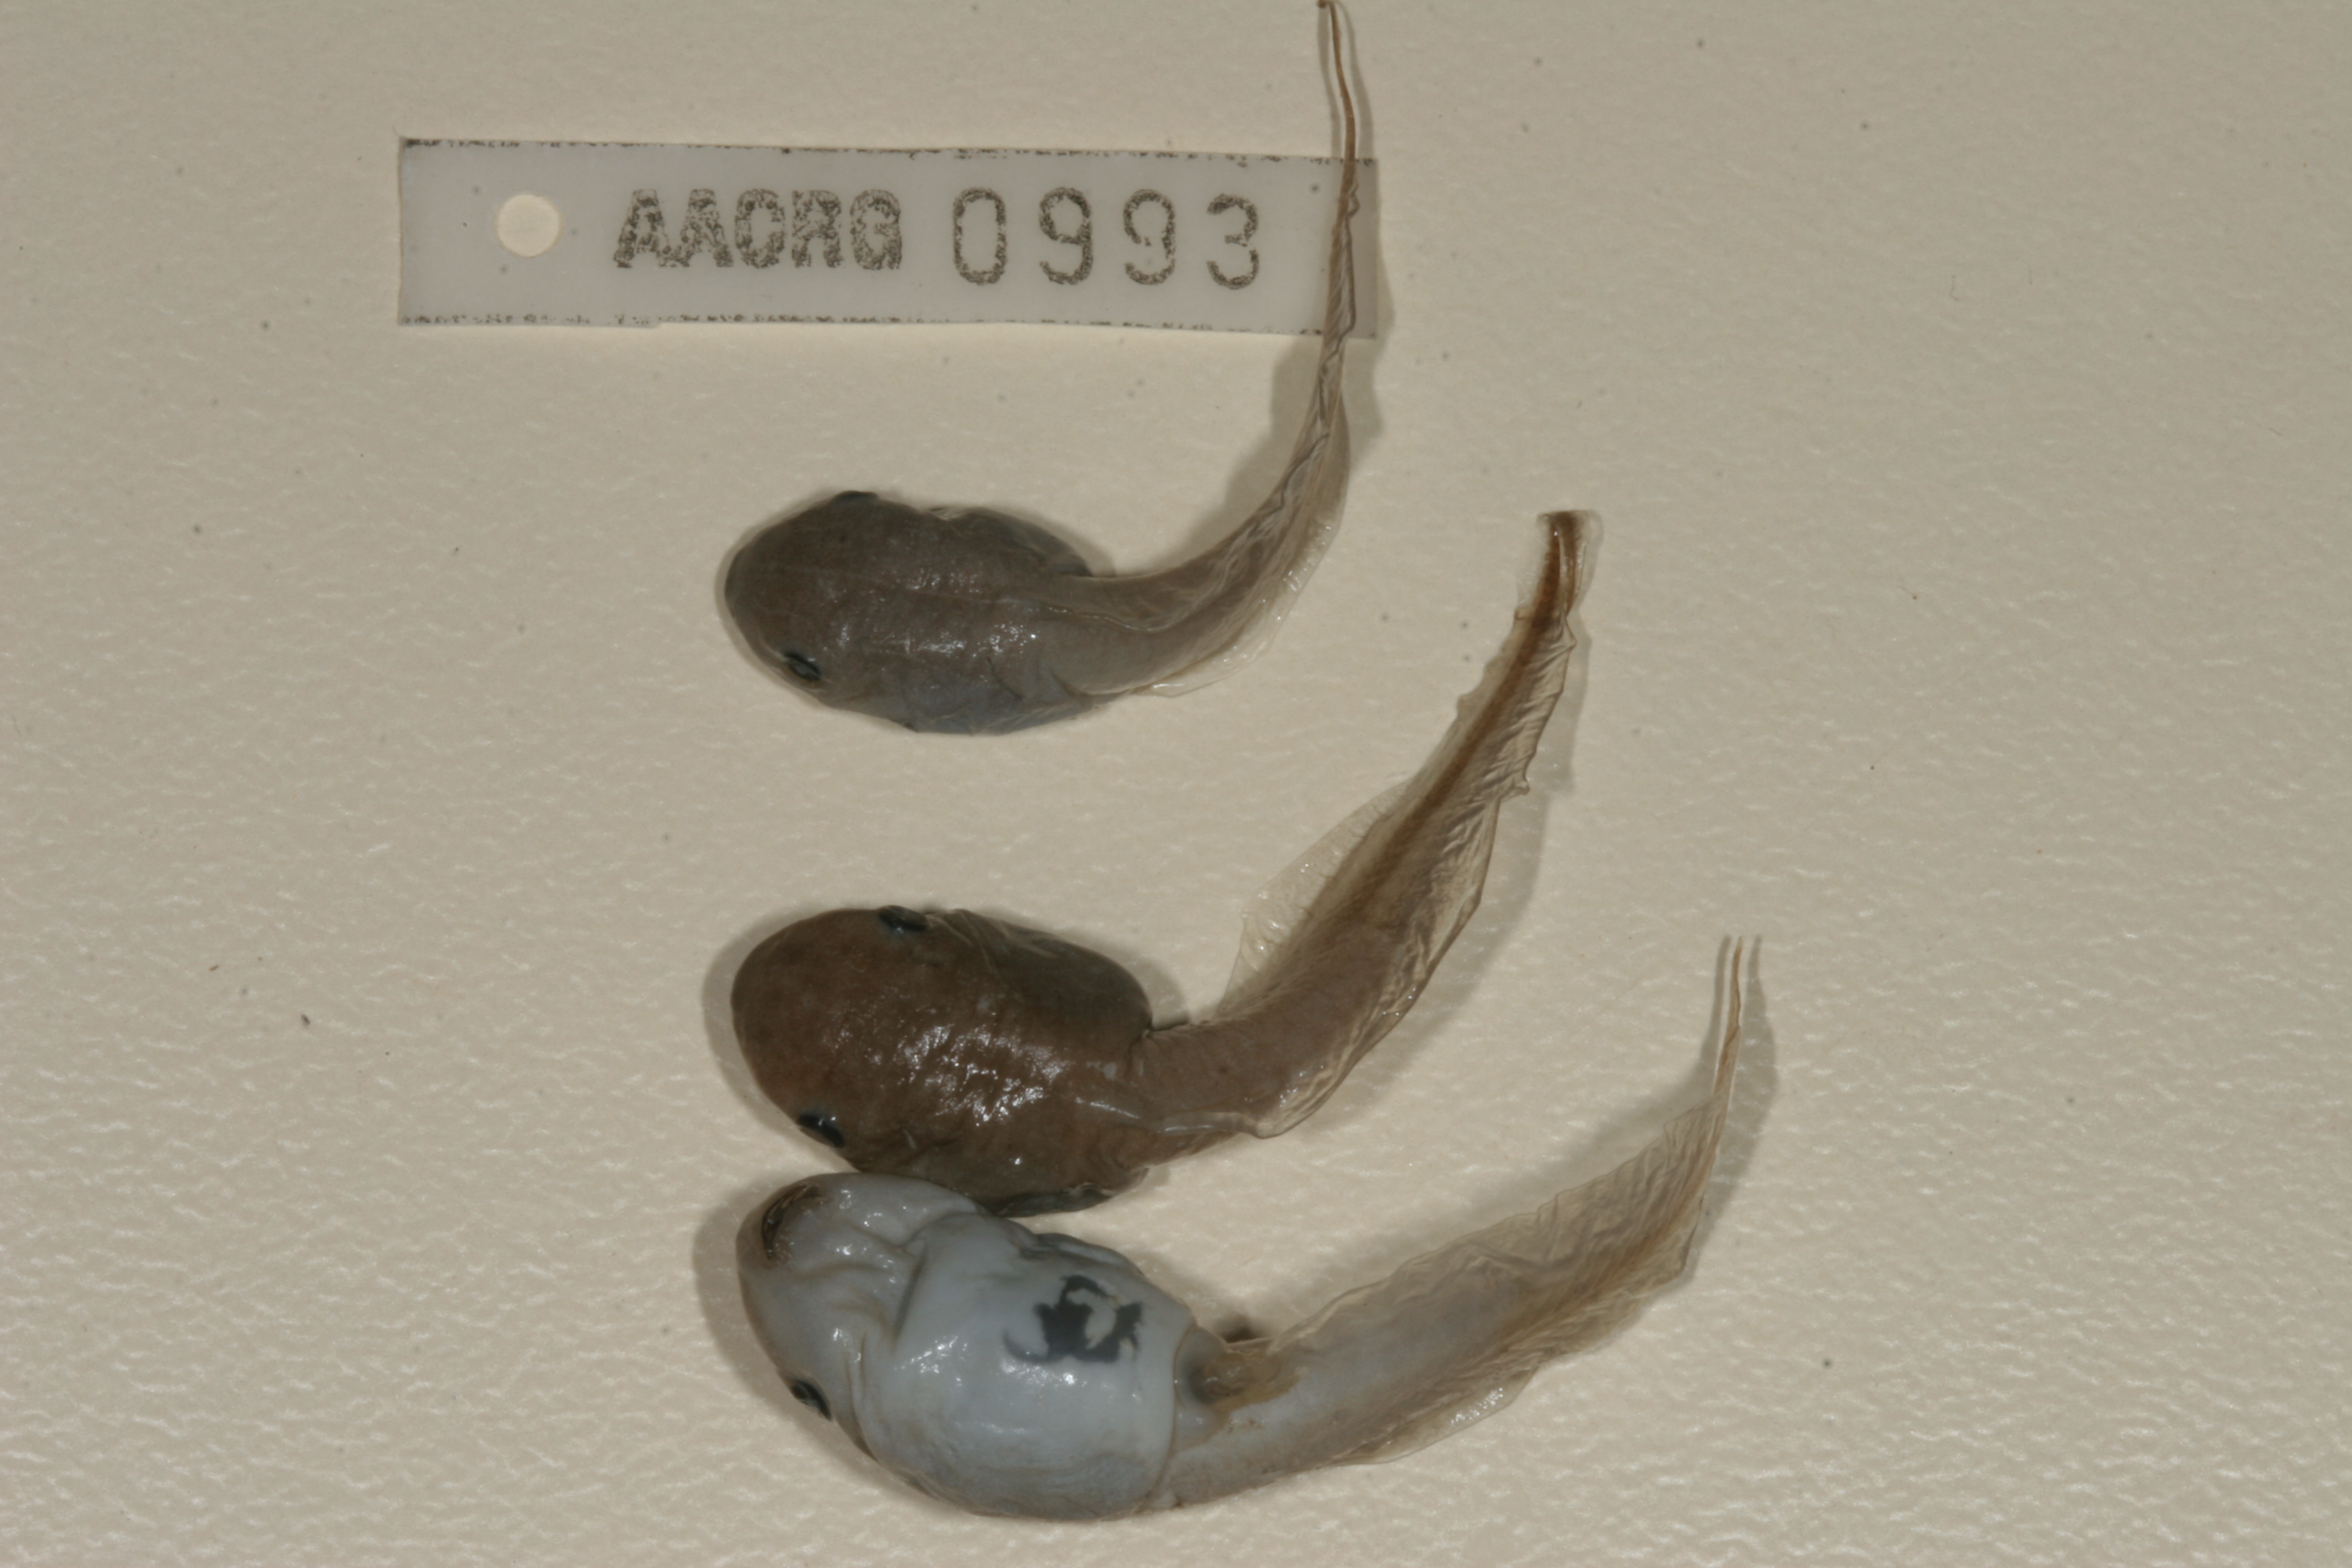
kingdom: Animalia
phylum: Chordata
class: Amphibia
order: Anura
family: Hemisotidae
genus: Hemisus
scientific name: Hemisus marmoratus
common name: Mottled shovel-nosed frog
